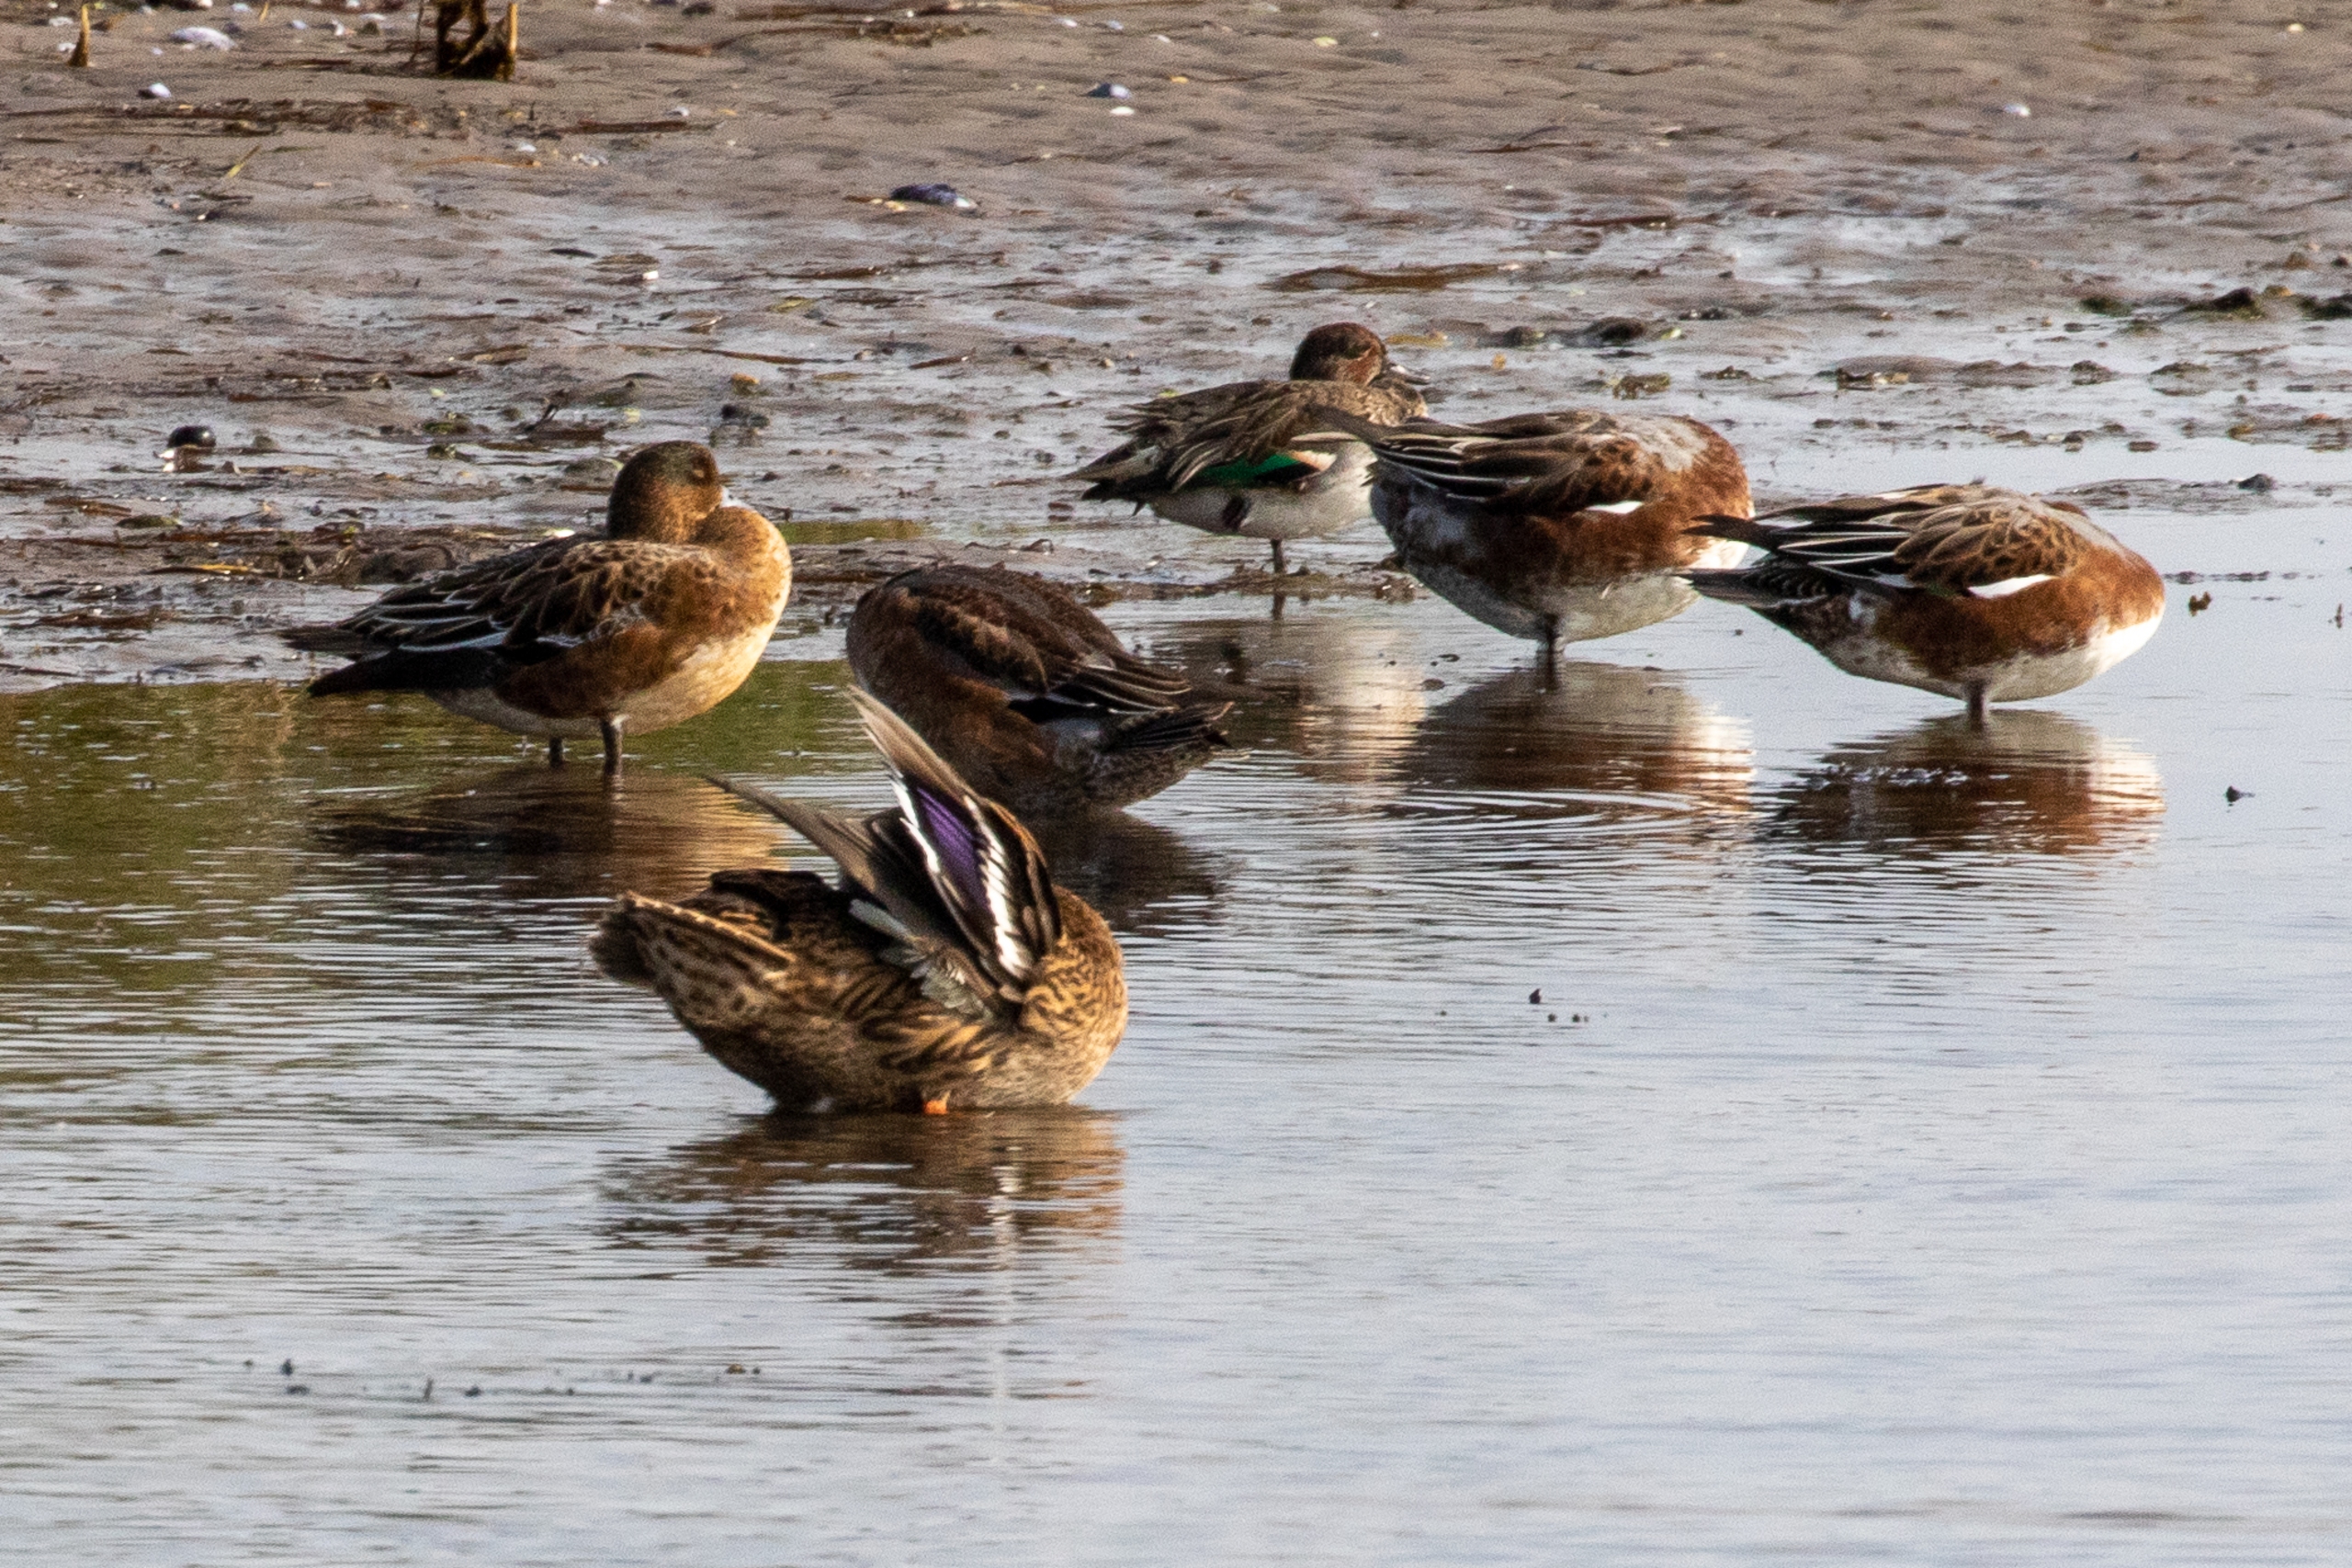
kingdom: Animalia
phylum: Chordata
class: Aves
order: Anseriformes
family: Anatidae
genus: Mareca
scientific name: Mareca penelope
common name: Pibeand
